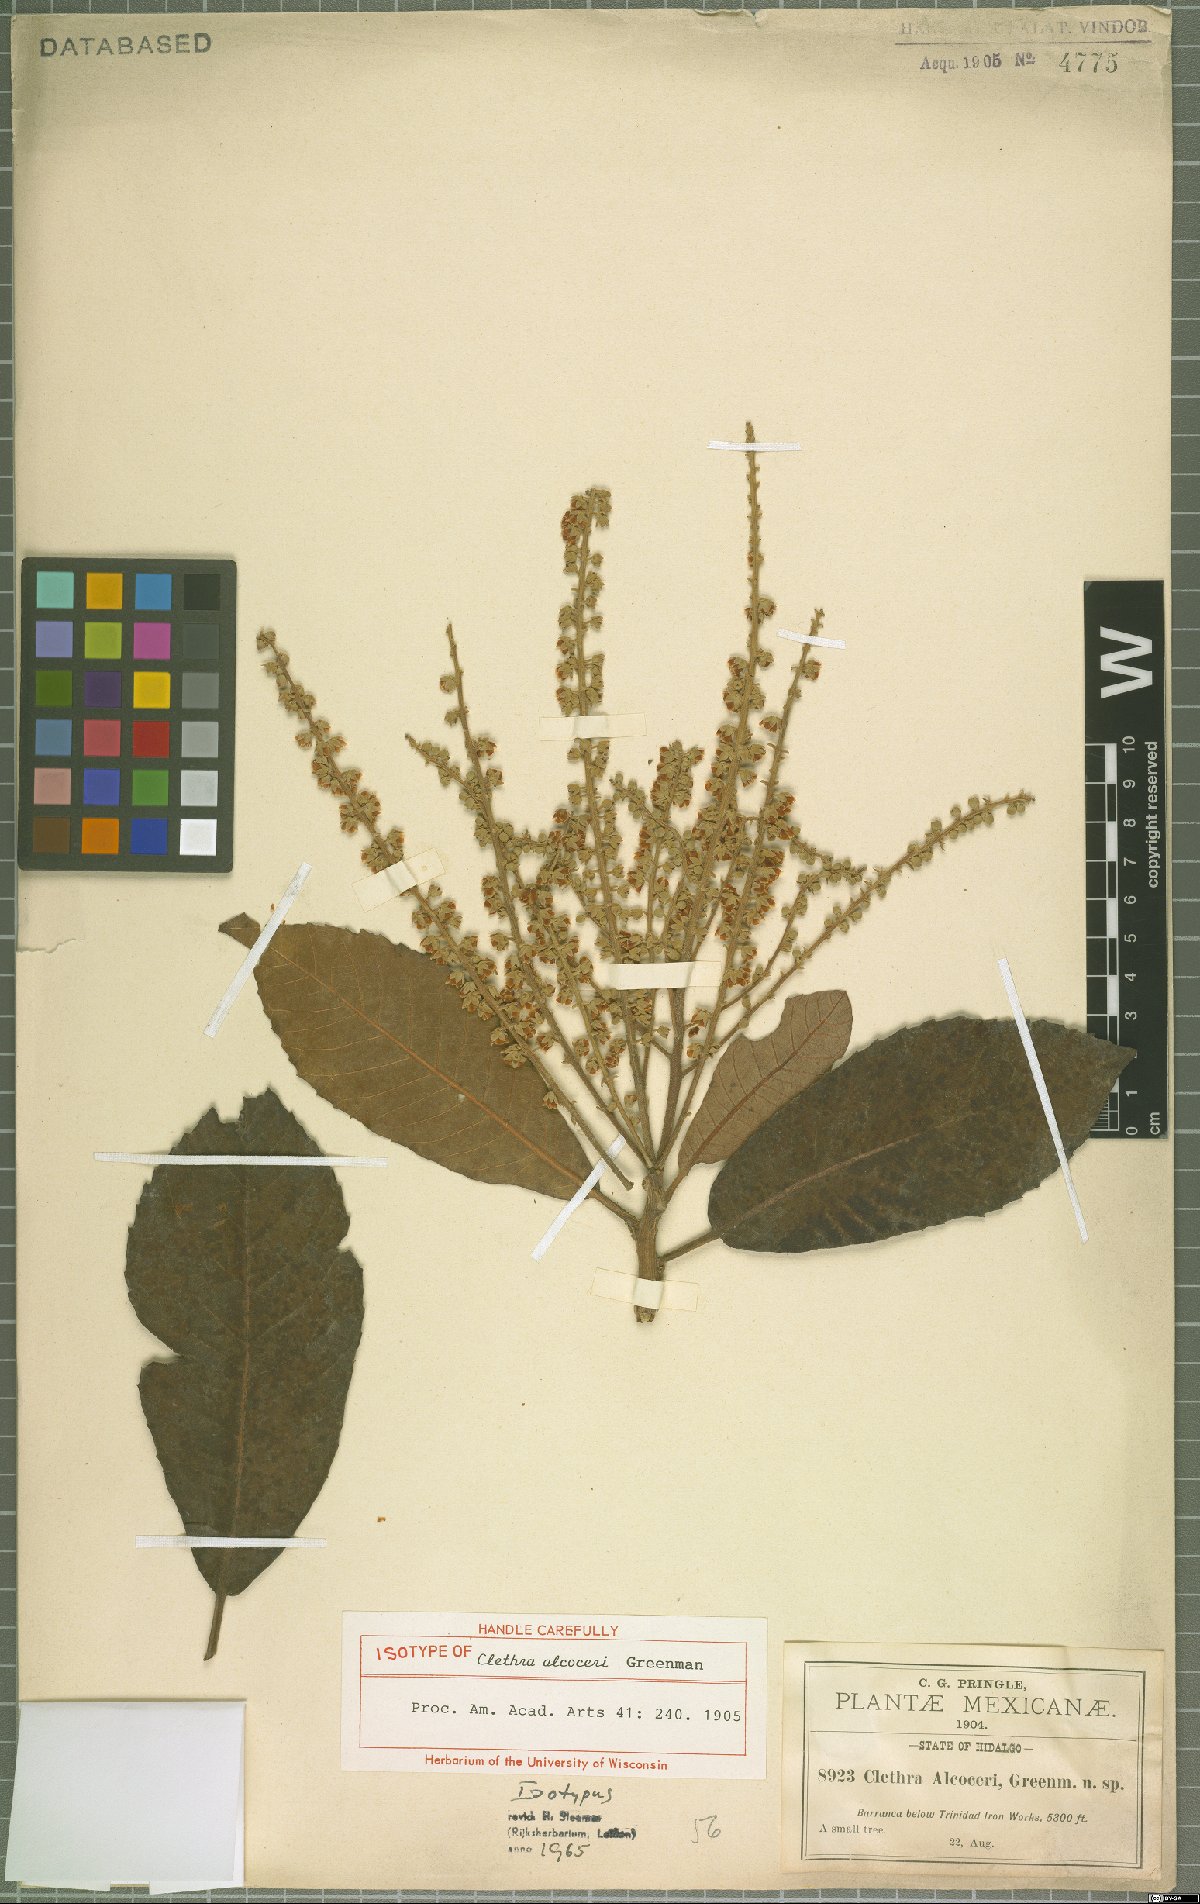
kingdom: Plantae
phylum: Tracheophyta
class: Magnoliopsida
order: Ericales
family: Clethraceae
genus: Clethra
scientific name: Clethra alcoceri
